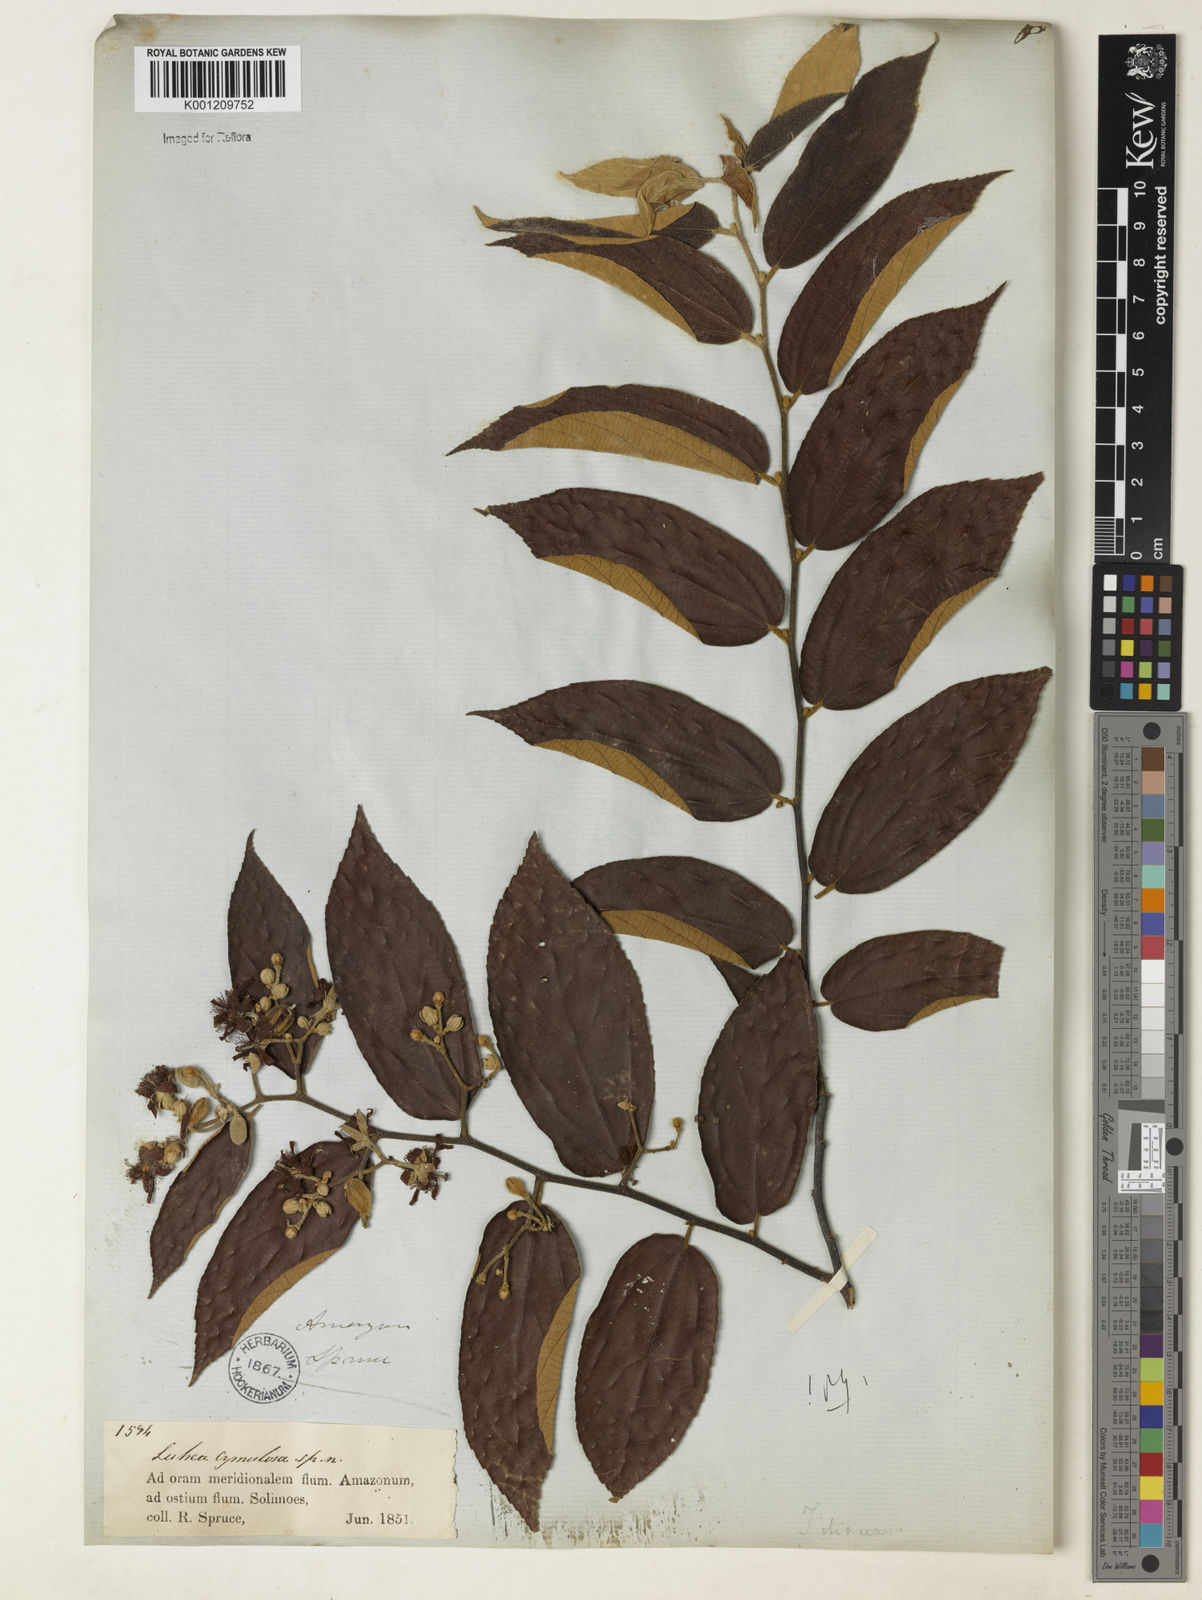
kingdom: Plantae
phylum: Tracheophyta
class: Magnoliopsida
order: Malvales
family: Malvaceae
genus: Luehea
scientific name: Luehea cymulosa
